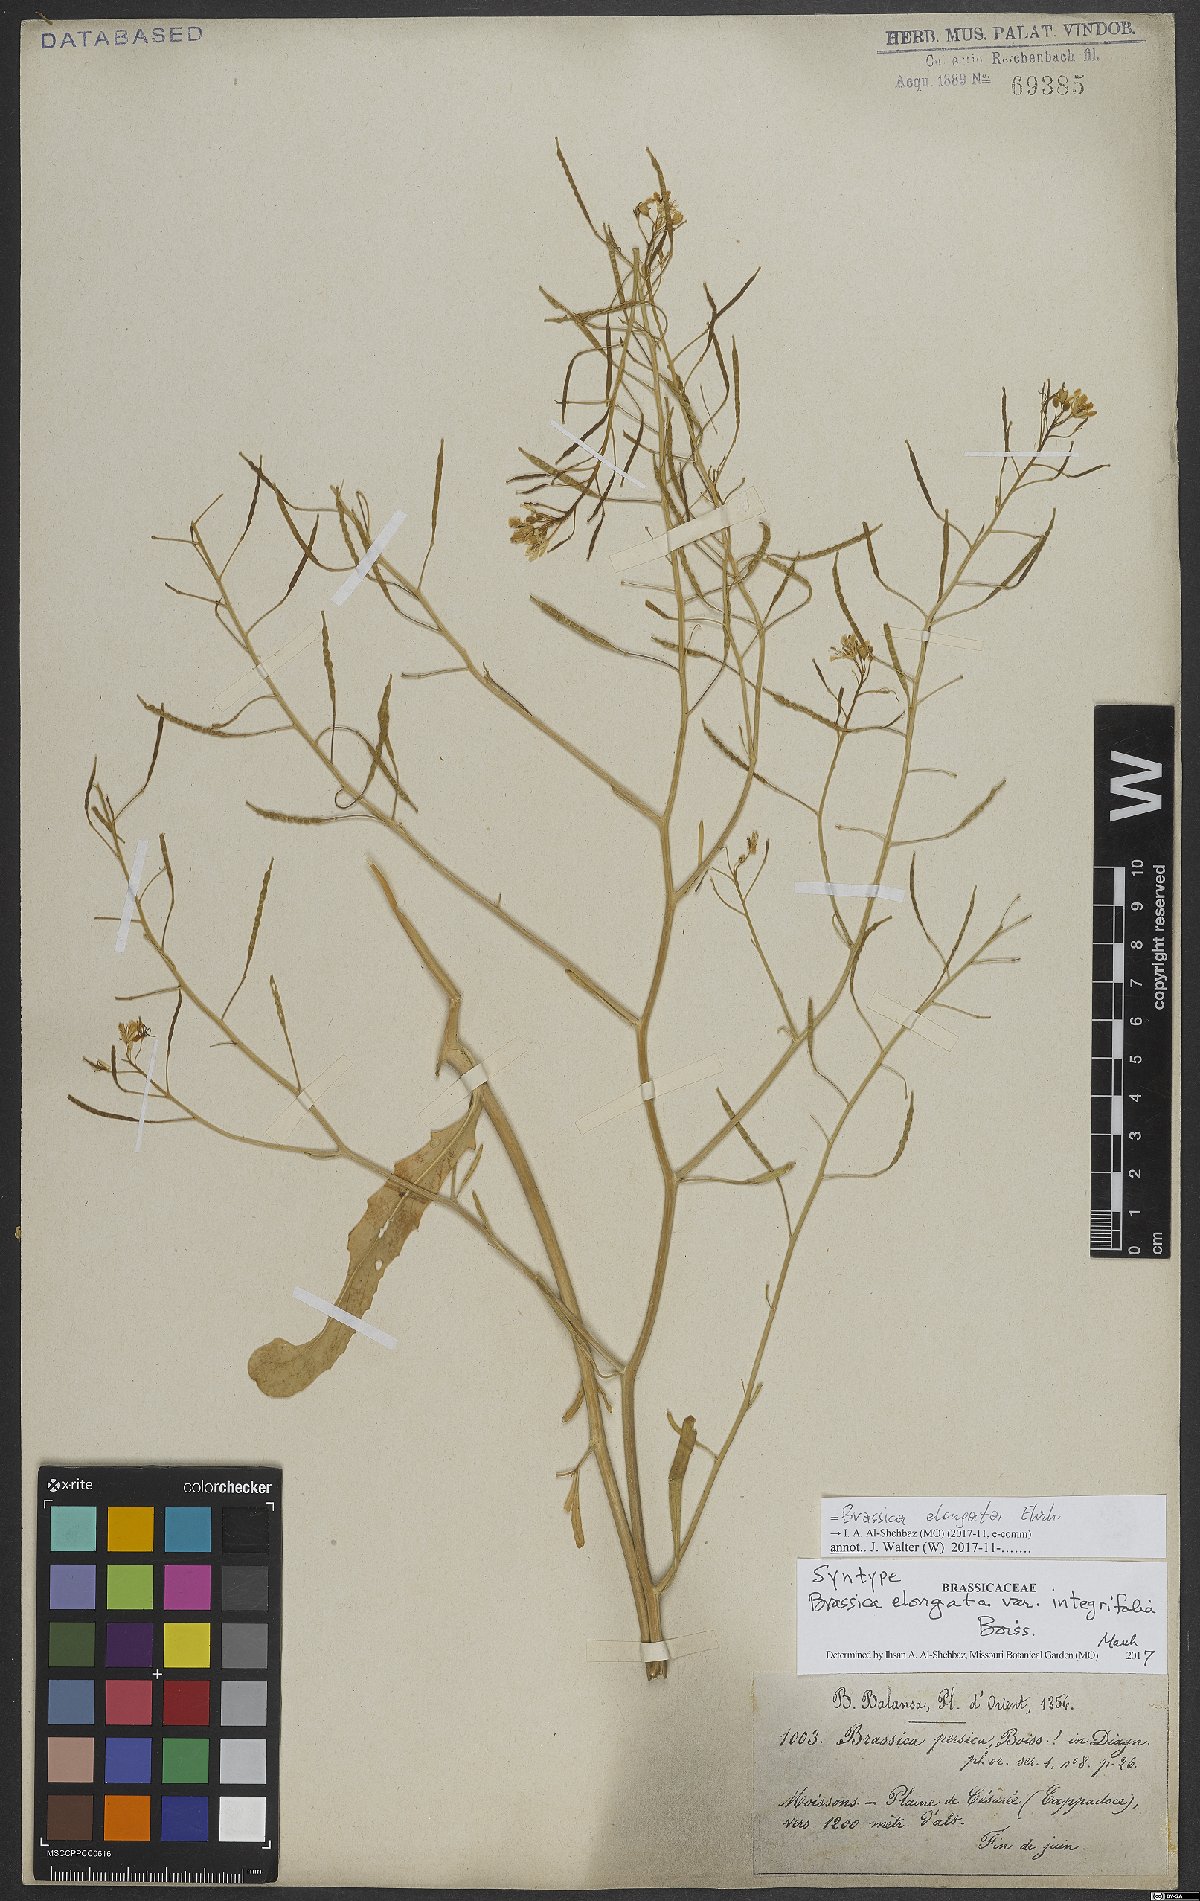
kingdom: Plantae
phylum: Tracheophyta
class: Magnoliopsida
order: Brassicales
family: Brassicaceae
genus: Brassica
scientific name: Brassica elongata
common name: Long-stalked rape
